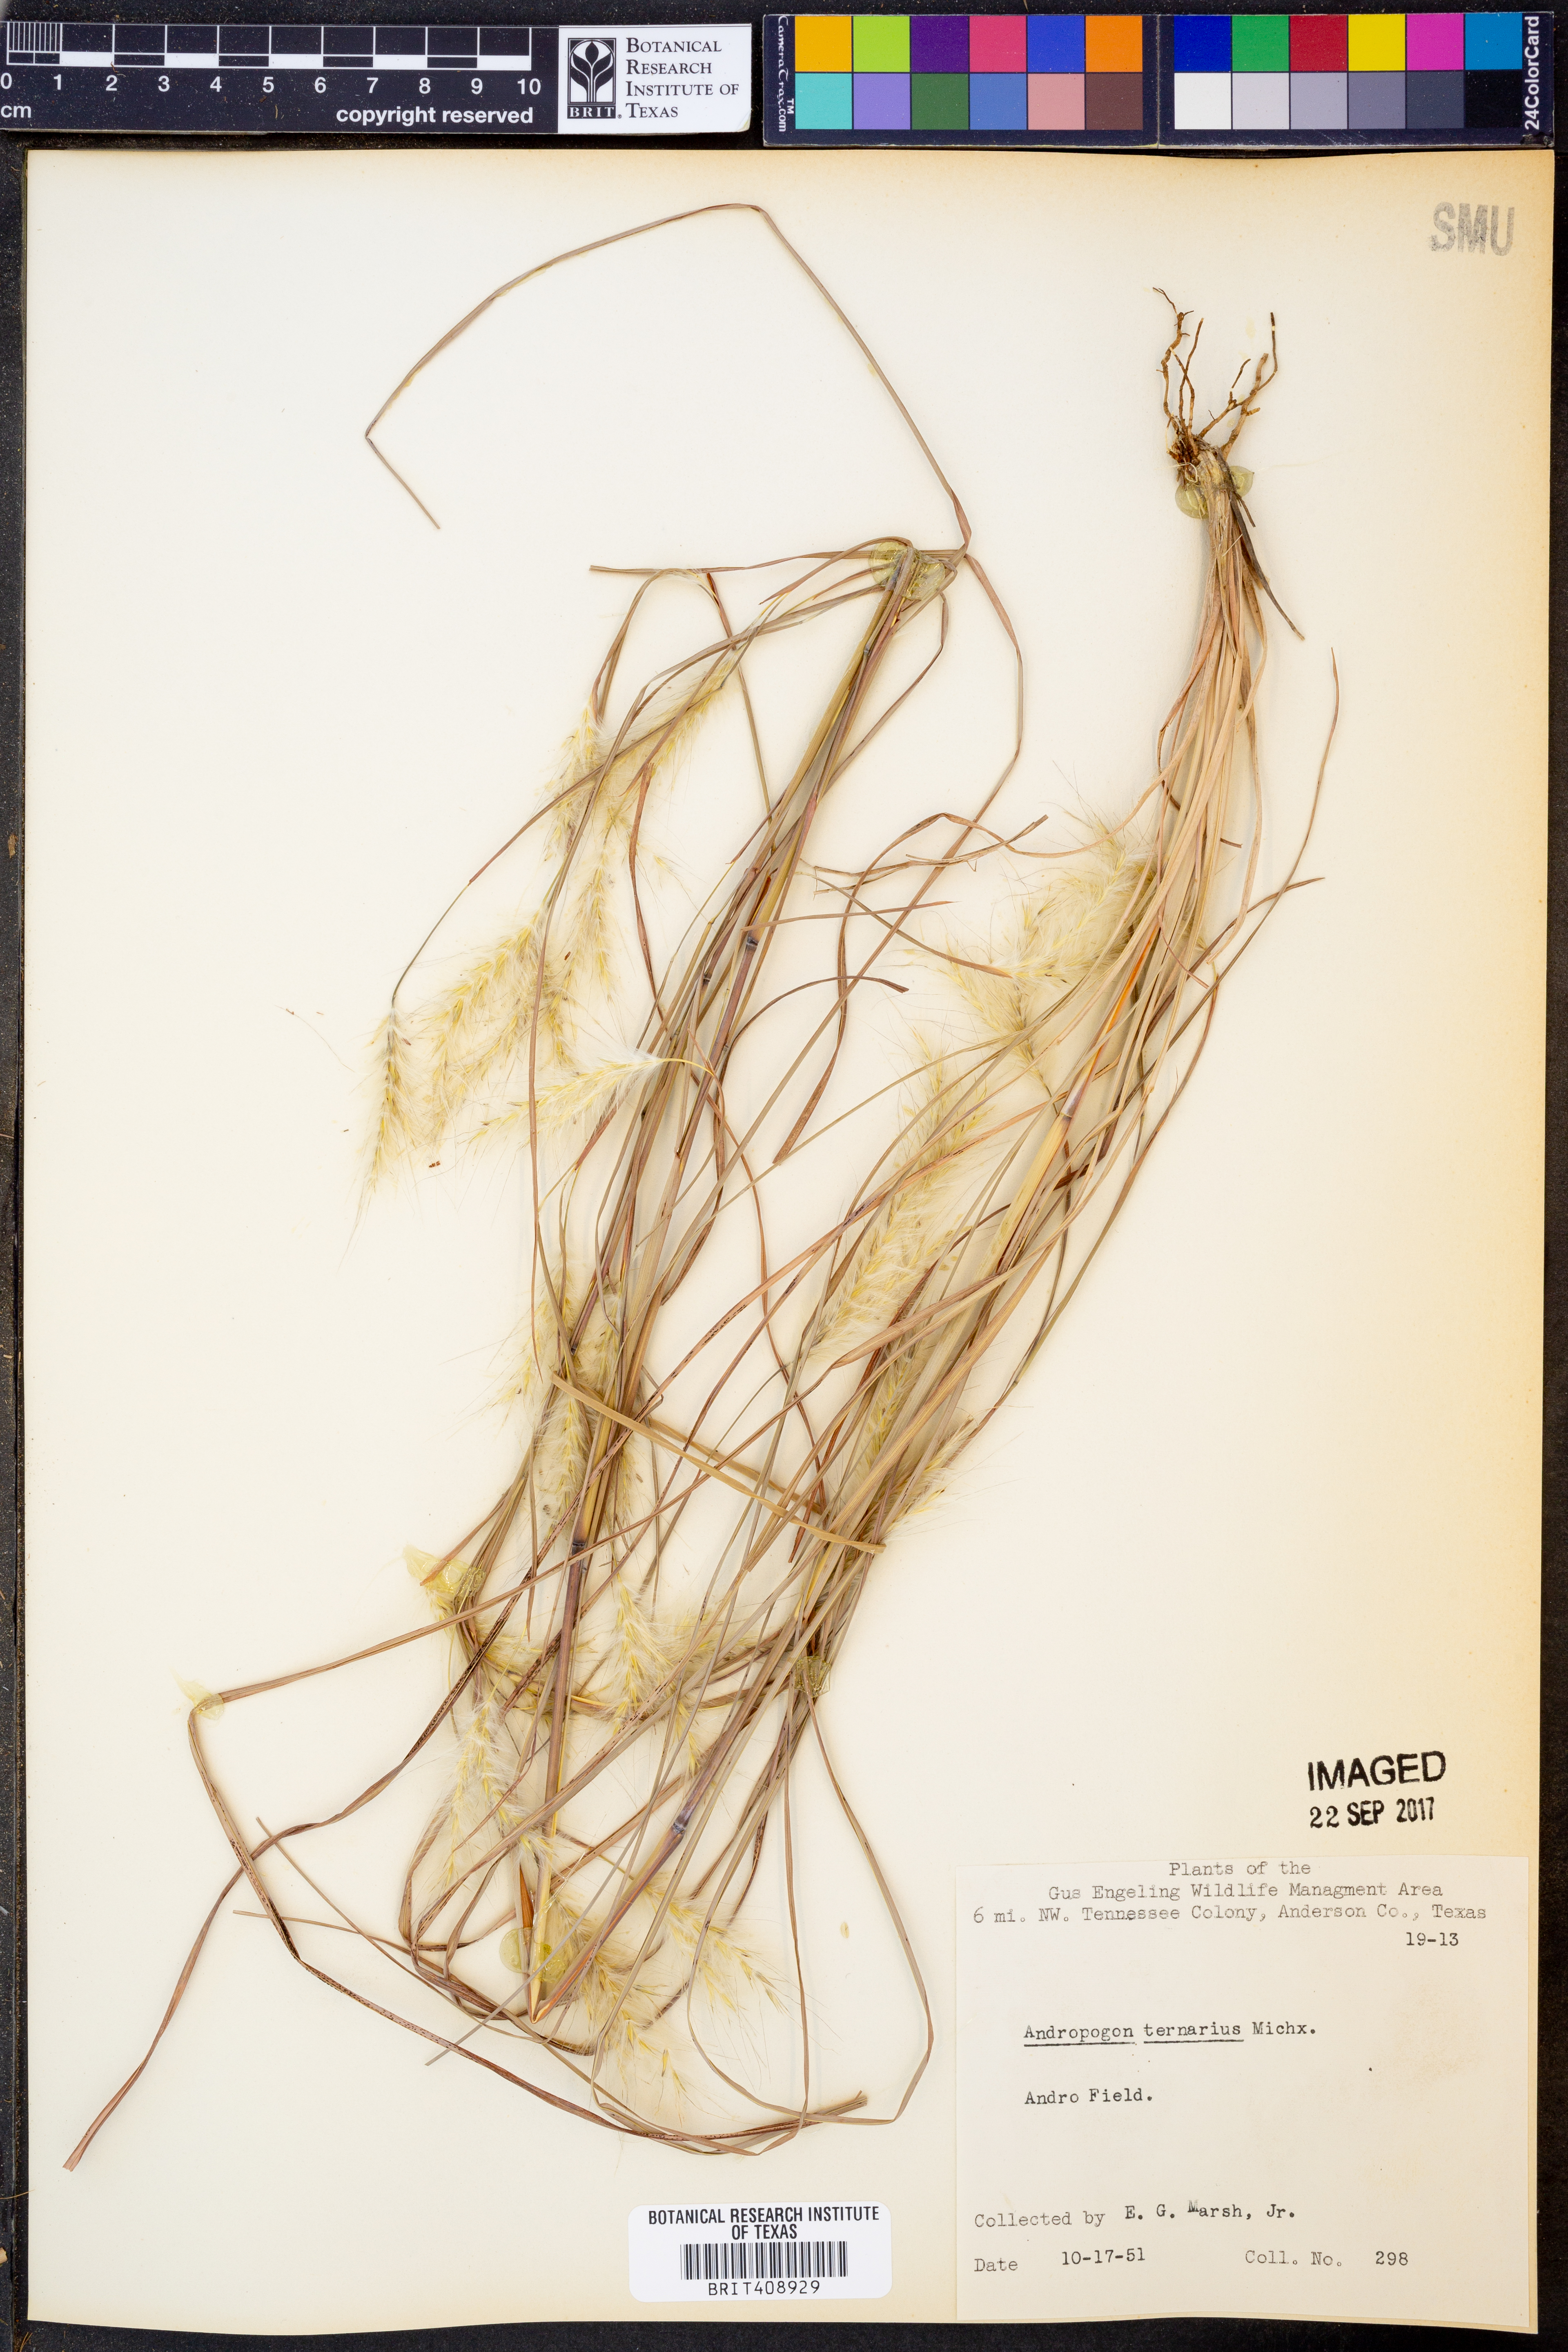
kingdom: Plantae
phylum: Tracheophyta
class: Liliopsida
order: Poales
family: Poaceae
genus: Andropogon
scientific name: Andropogon ternarius
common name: Split bluestem
